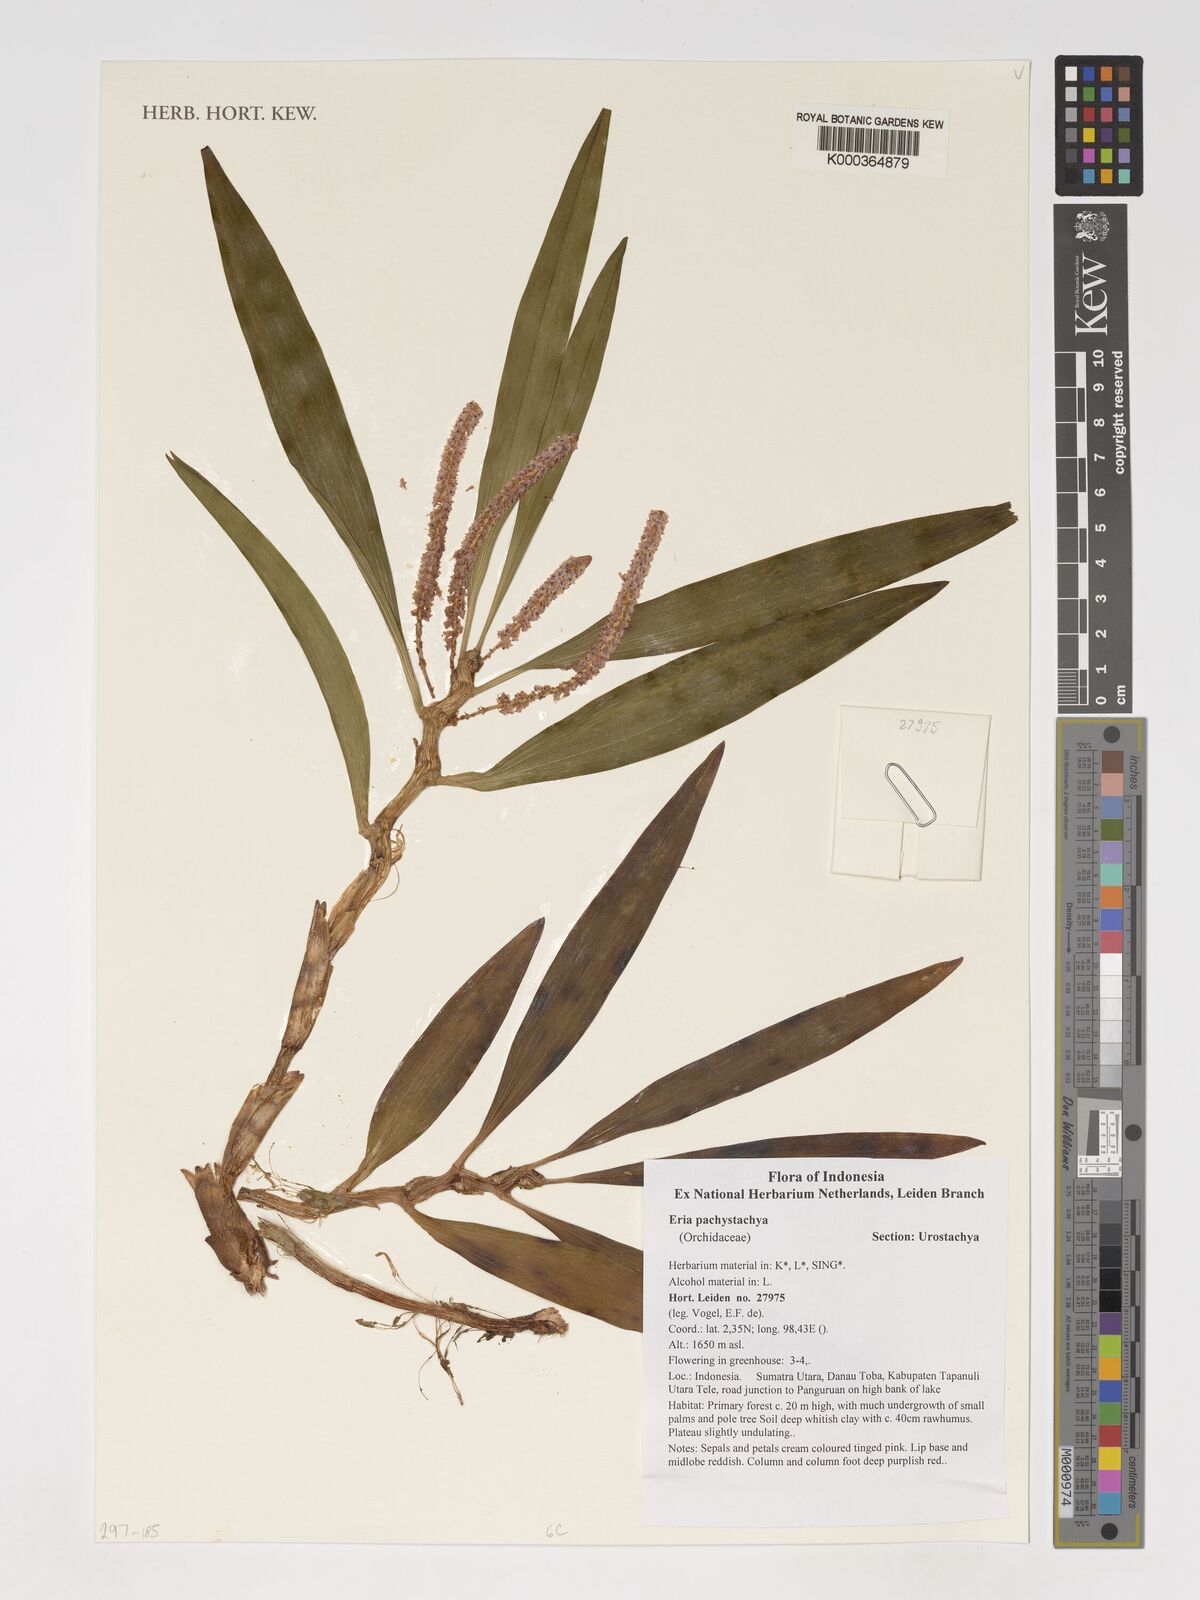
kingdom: Plantae
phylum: Tracheophyta
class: Liliopsida
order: Asparagales
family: Orchidaceae
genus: Pinalia
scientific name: Pinalia pachystachya
